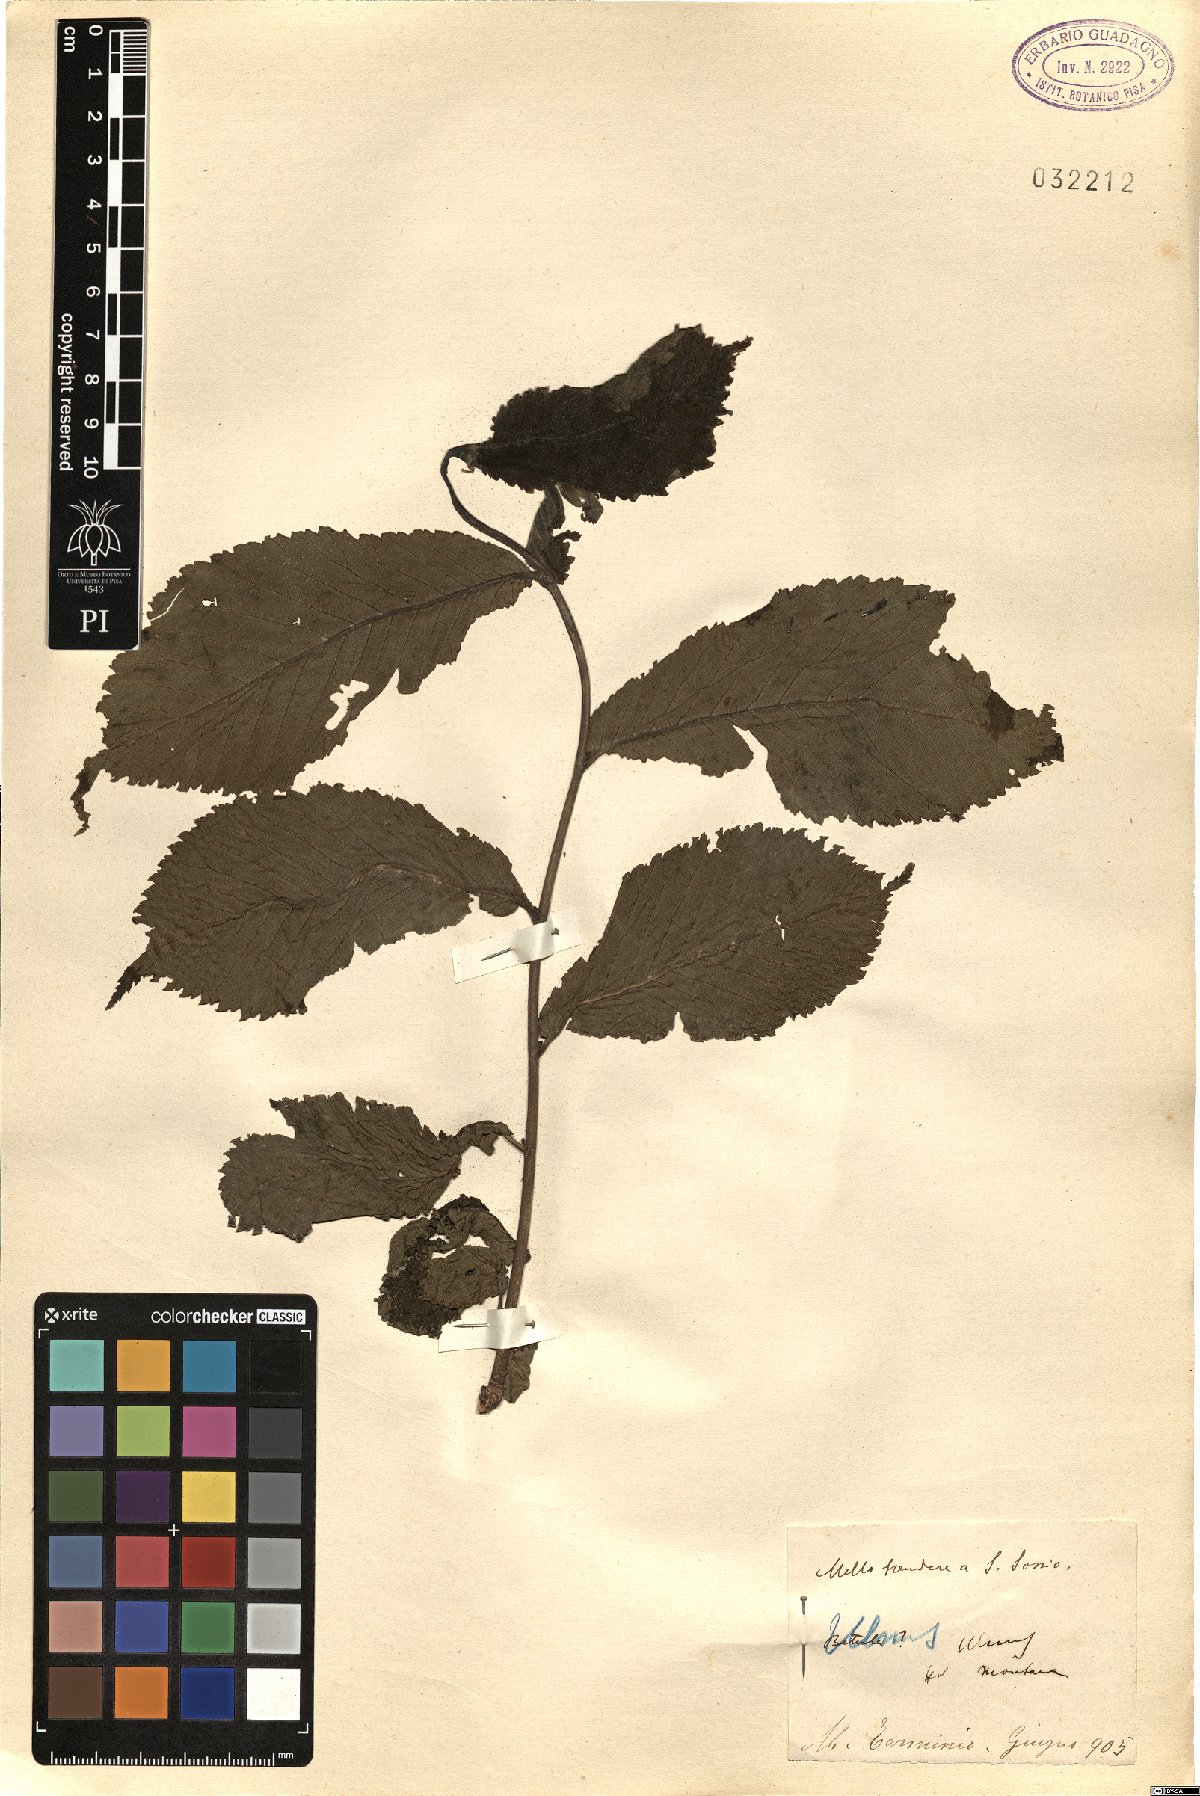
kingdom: Plantae
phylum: Tracheophyta
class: Magnoliopsida
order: Rosales
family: Ulmaceae
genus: Ulmus
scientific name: Ulmus glabra
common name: Wych elm
